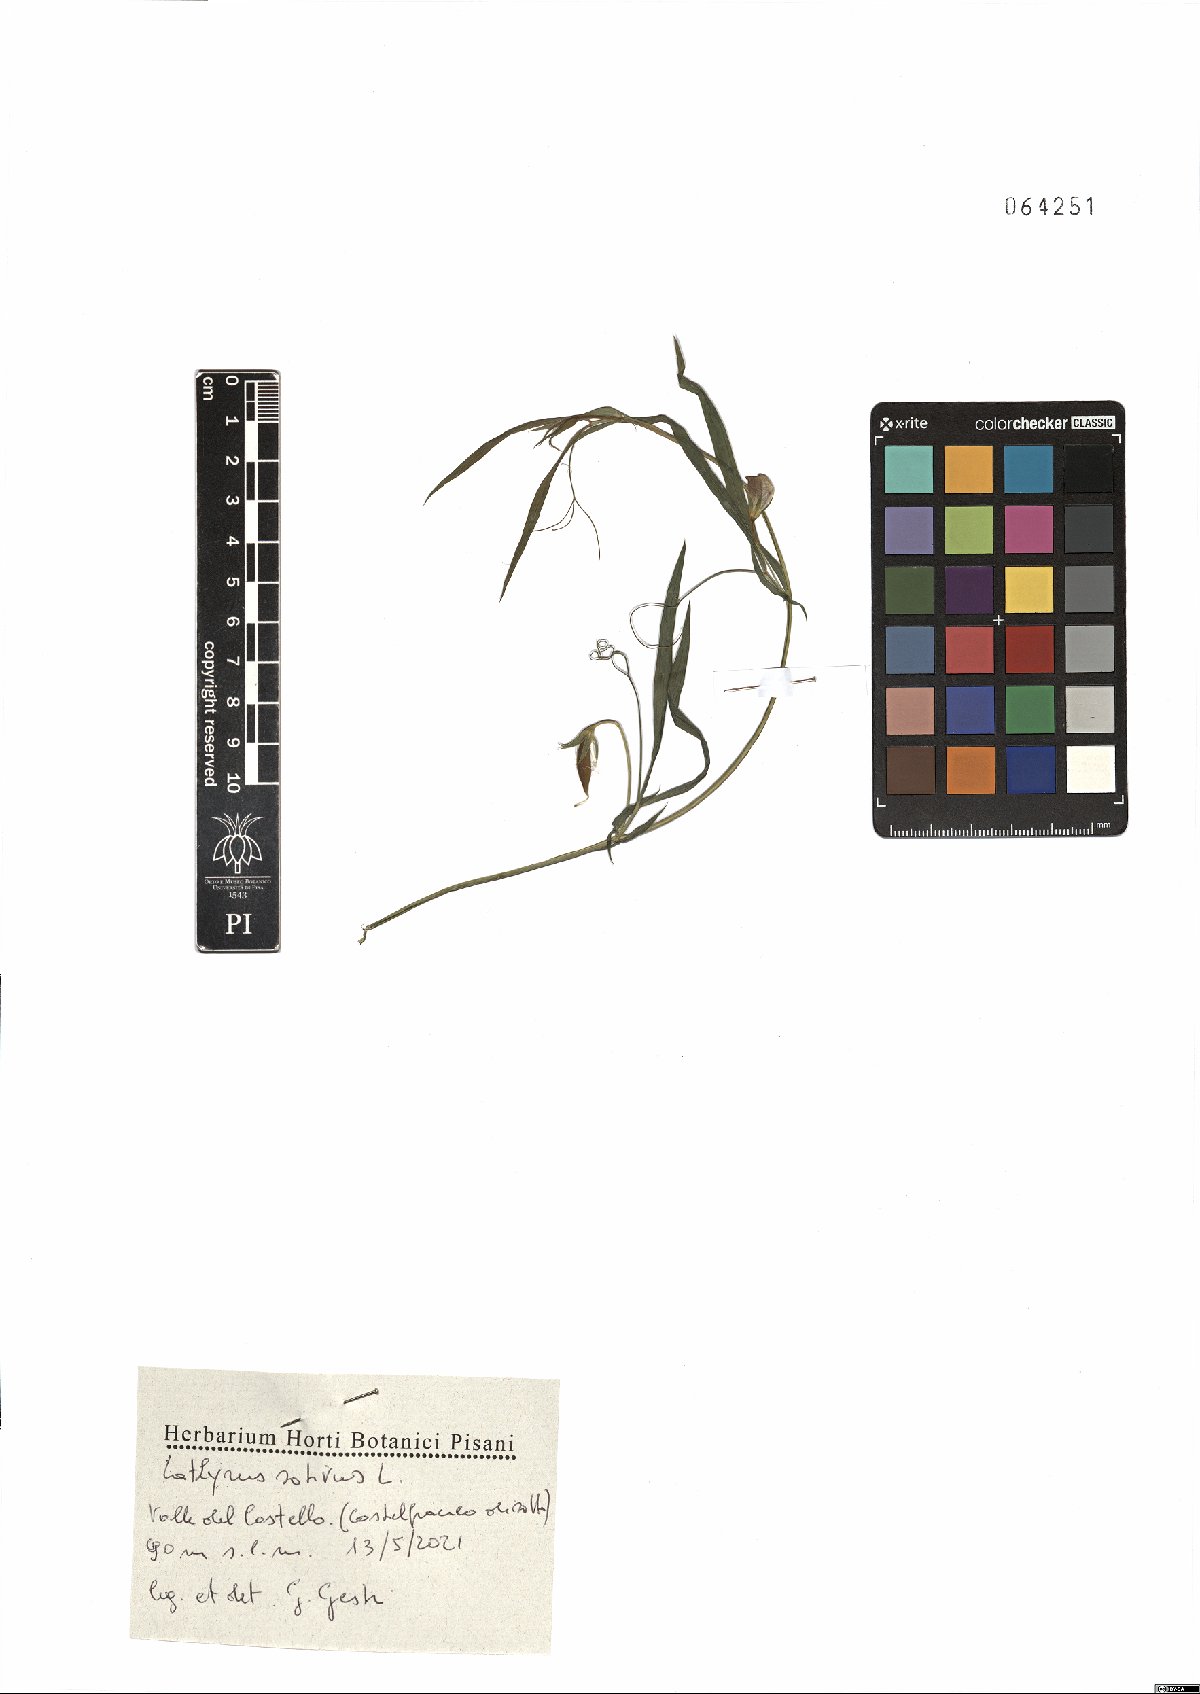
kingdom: Plantae
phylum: Tracheophyta
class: Magnoliopsida
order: Fabales
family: Fabaceae
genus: Lathyrus
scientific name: Lathyrus sativus
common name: Indian pea
